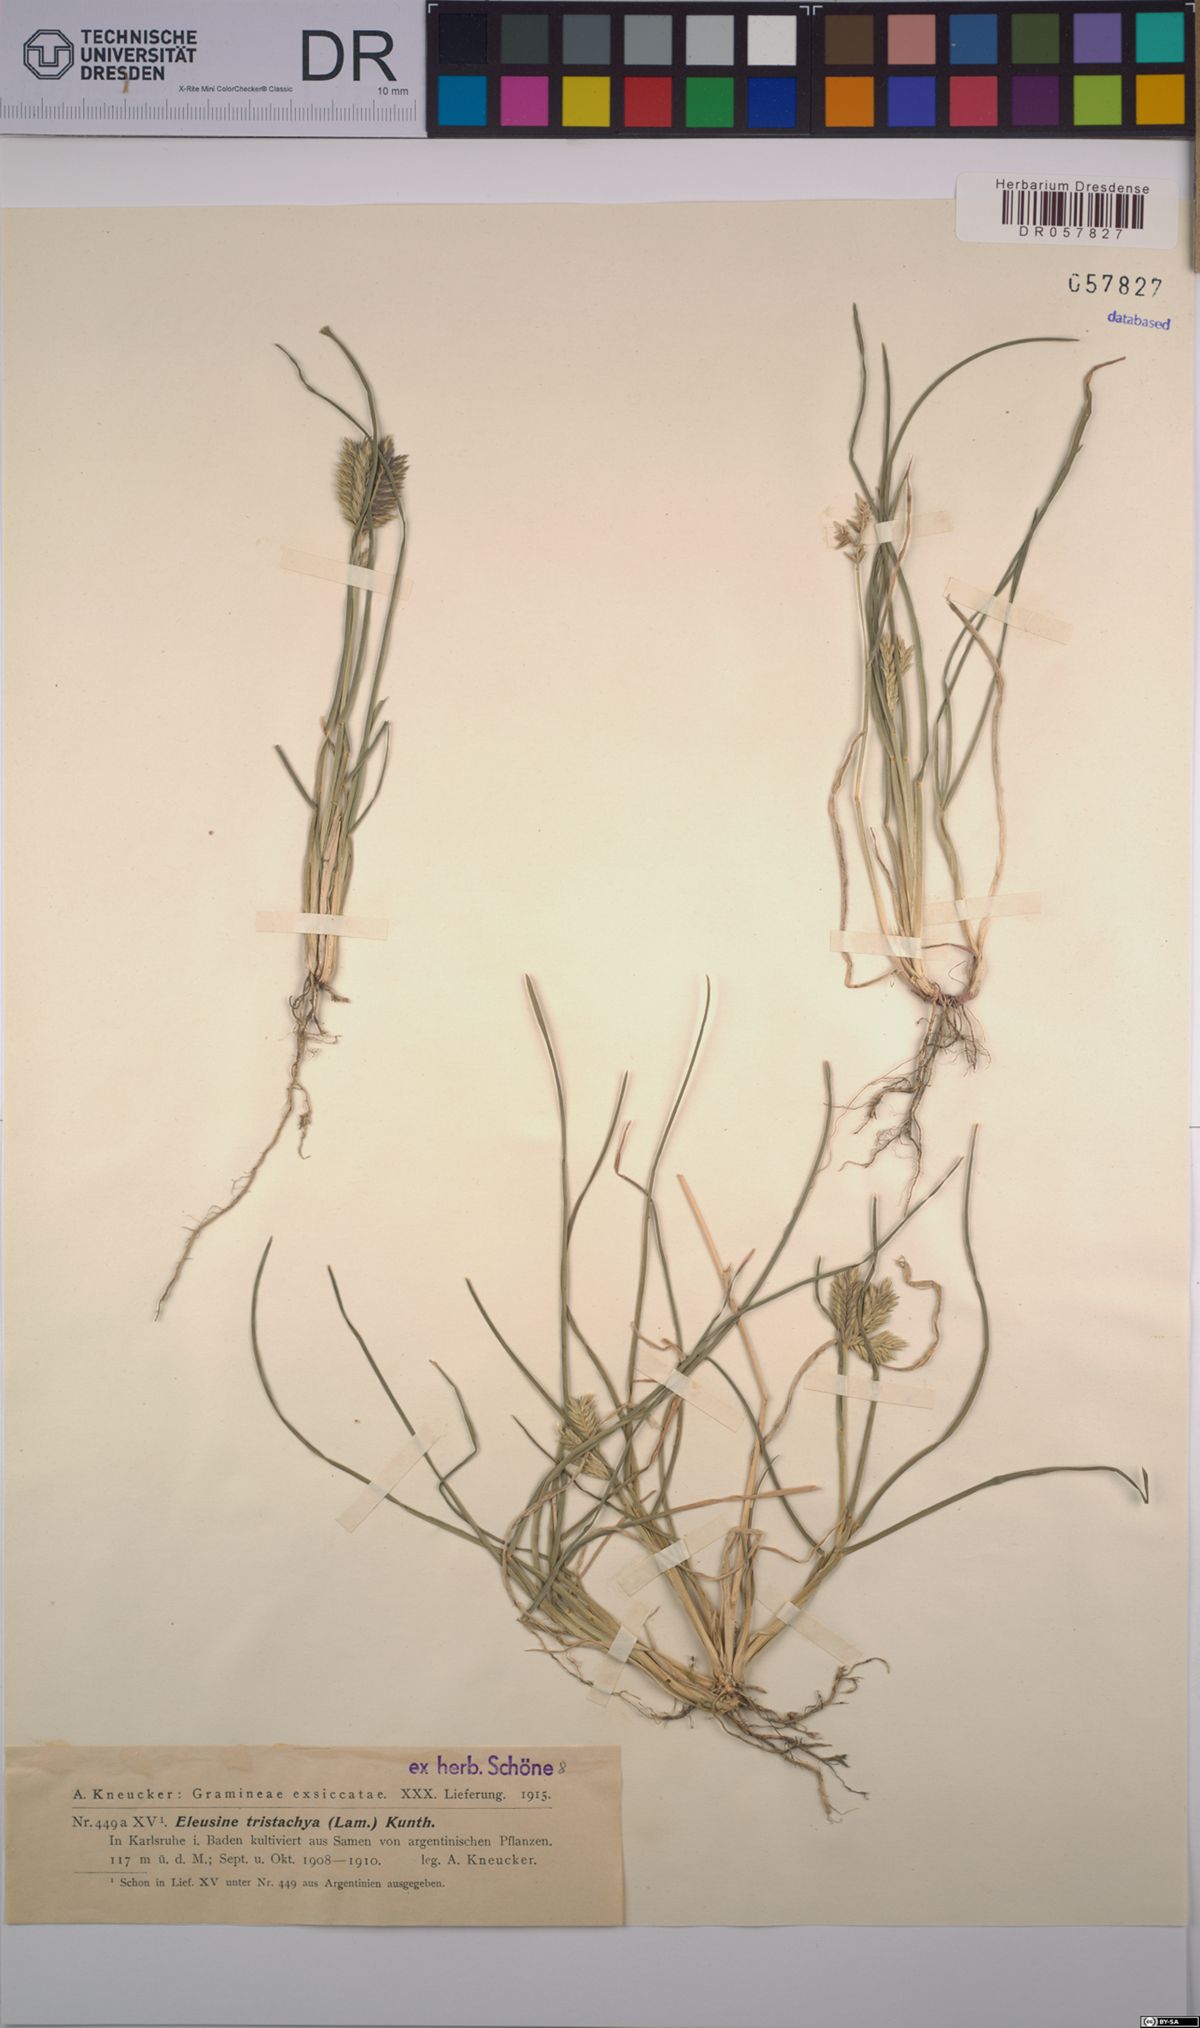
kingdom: Plantae
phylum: Tracheophyta
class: Liliopsida
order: Poales
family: Poaceae
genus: Eleusine
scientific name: Eleusine tristachya
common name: American yard-grass
